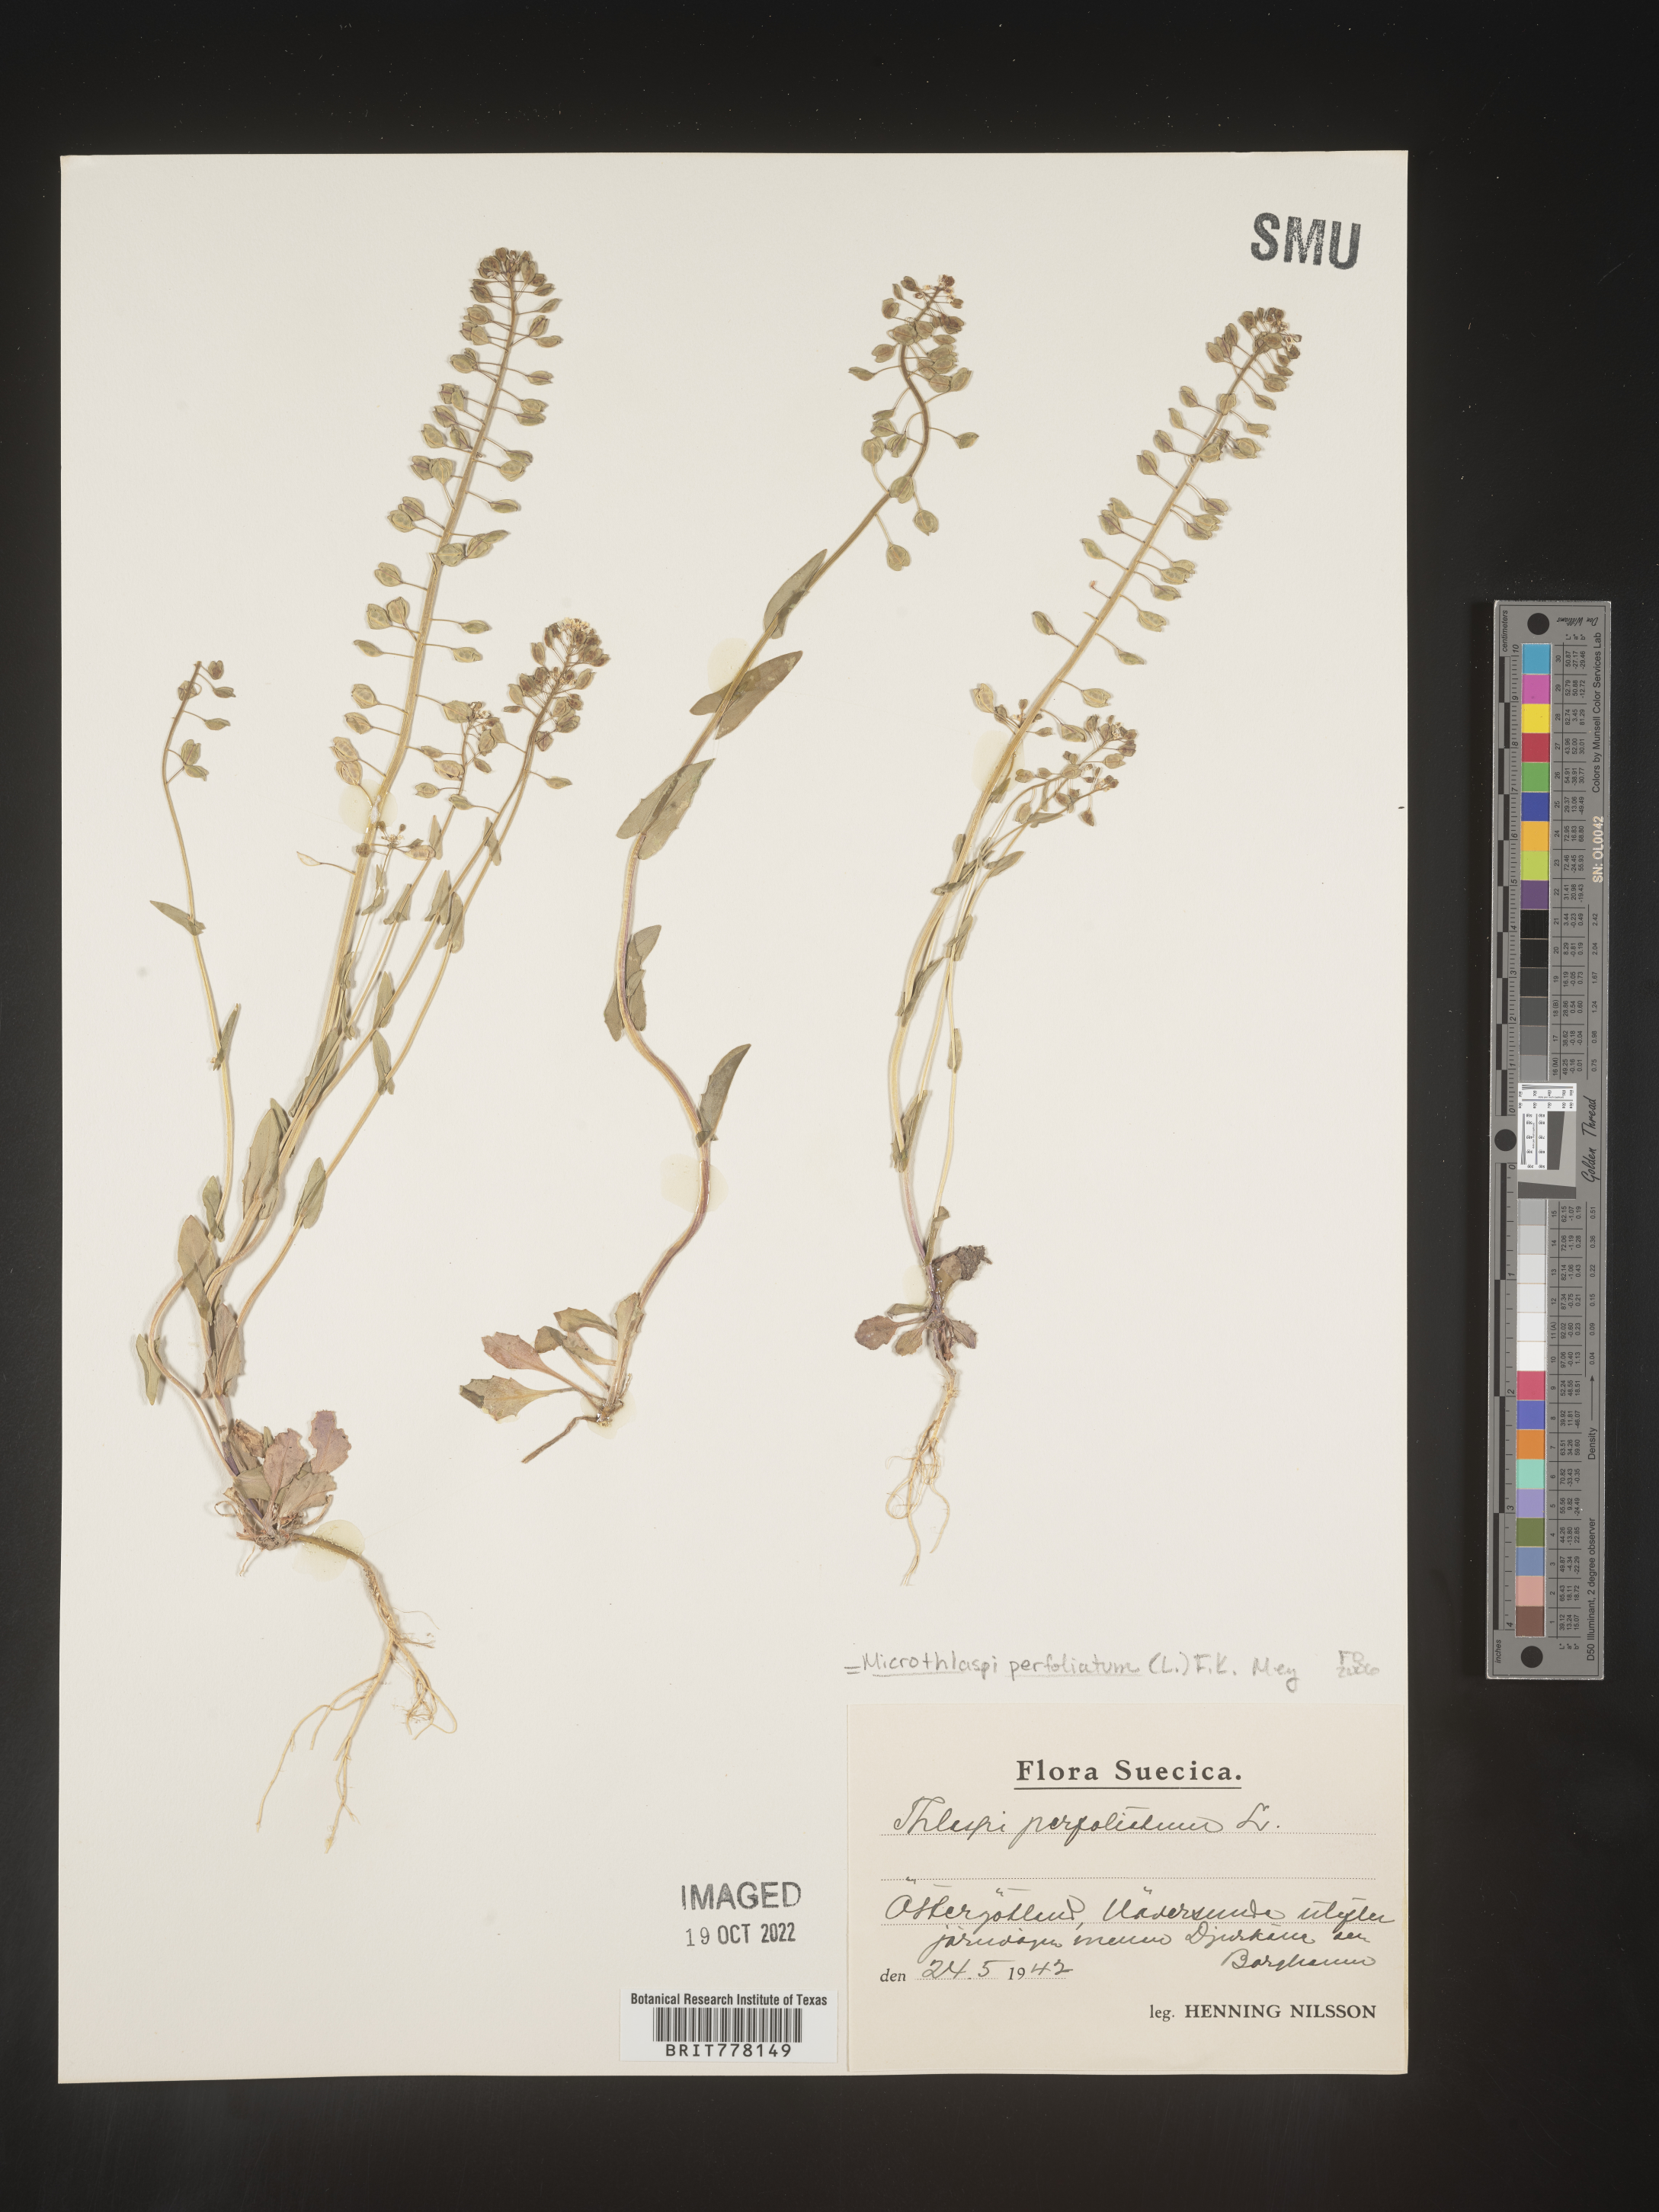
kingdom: Plantae
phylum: Tracheophyta
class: Magnoliopsida
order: Brassicales
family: Brassicaceae
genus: Noccaea
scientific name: Noccaea
